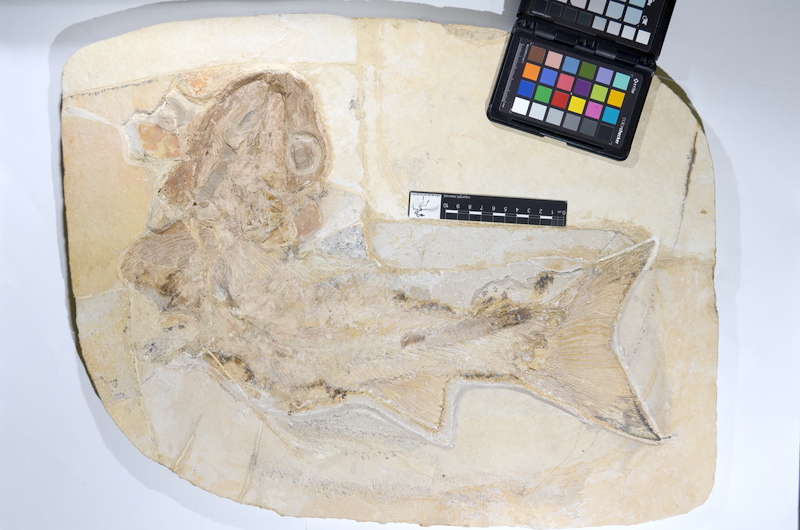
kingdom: Animalia
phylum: Chordata
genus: Callopterus
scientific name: Callopterus armata
